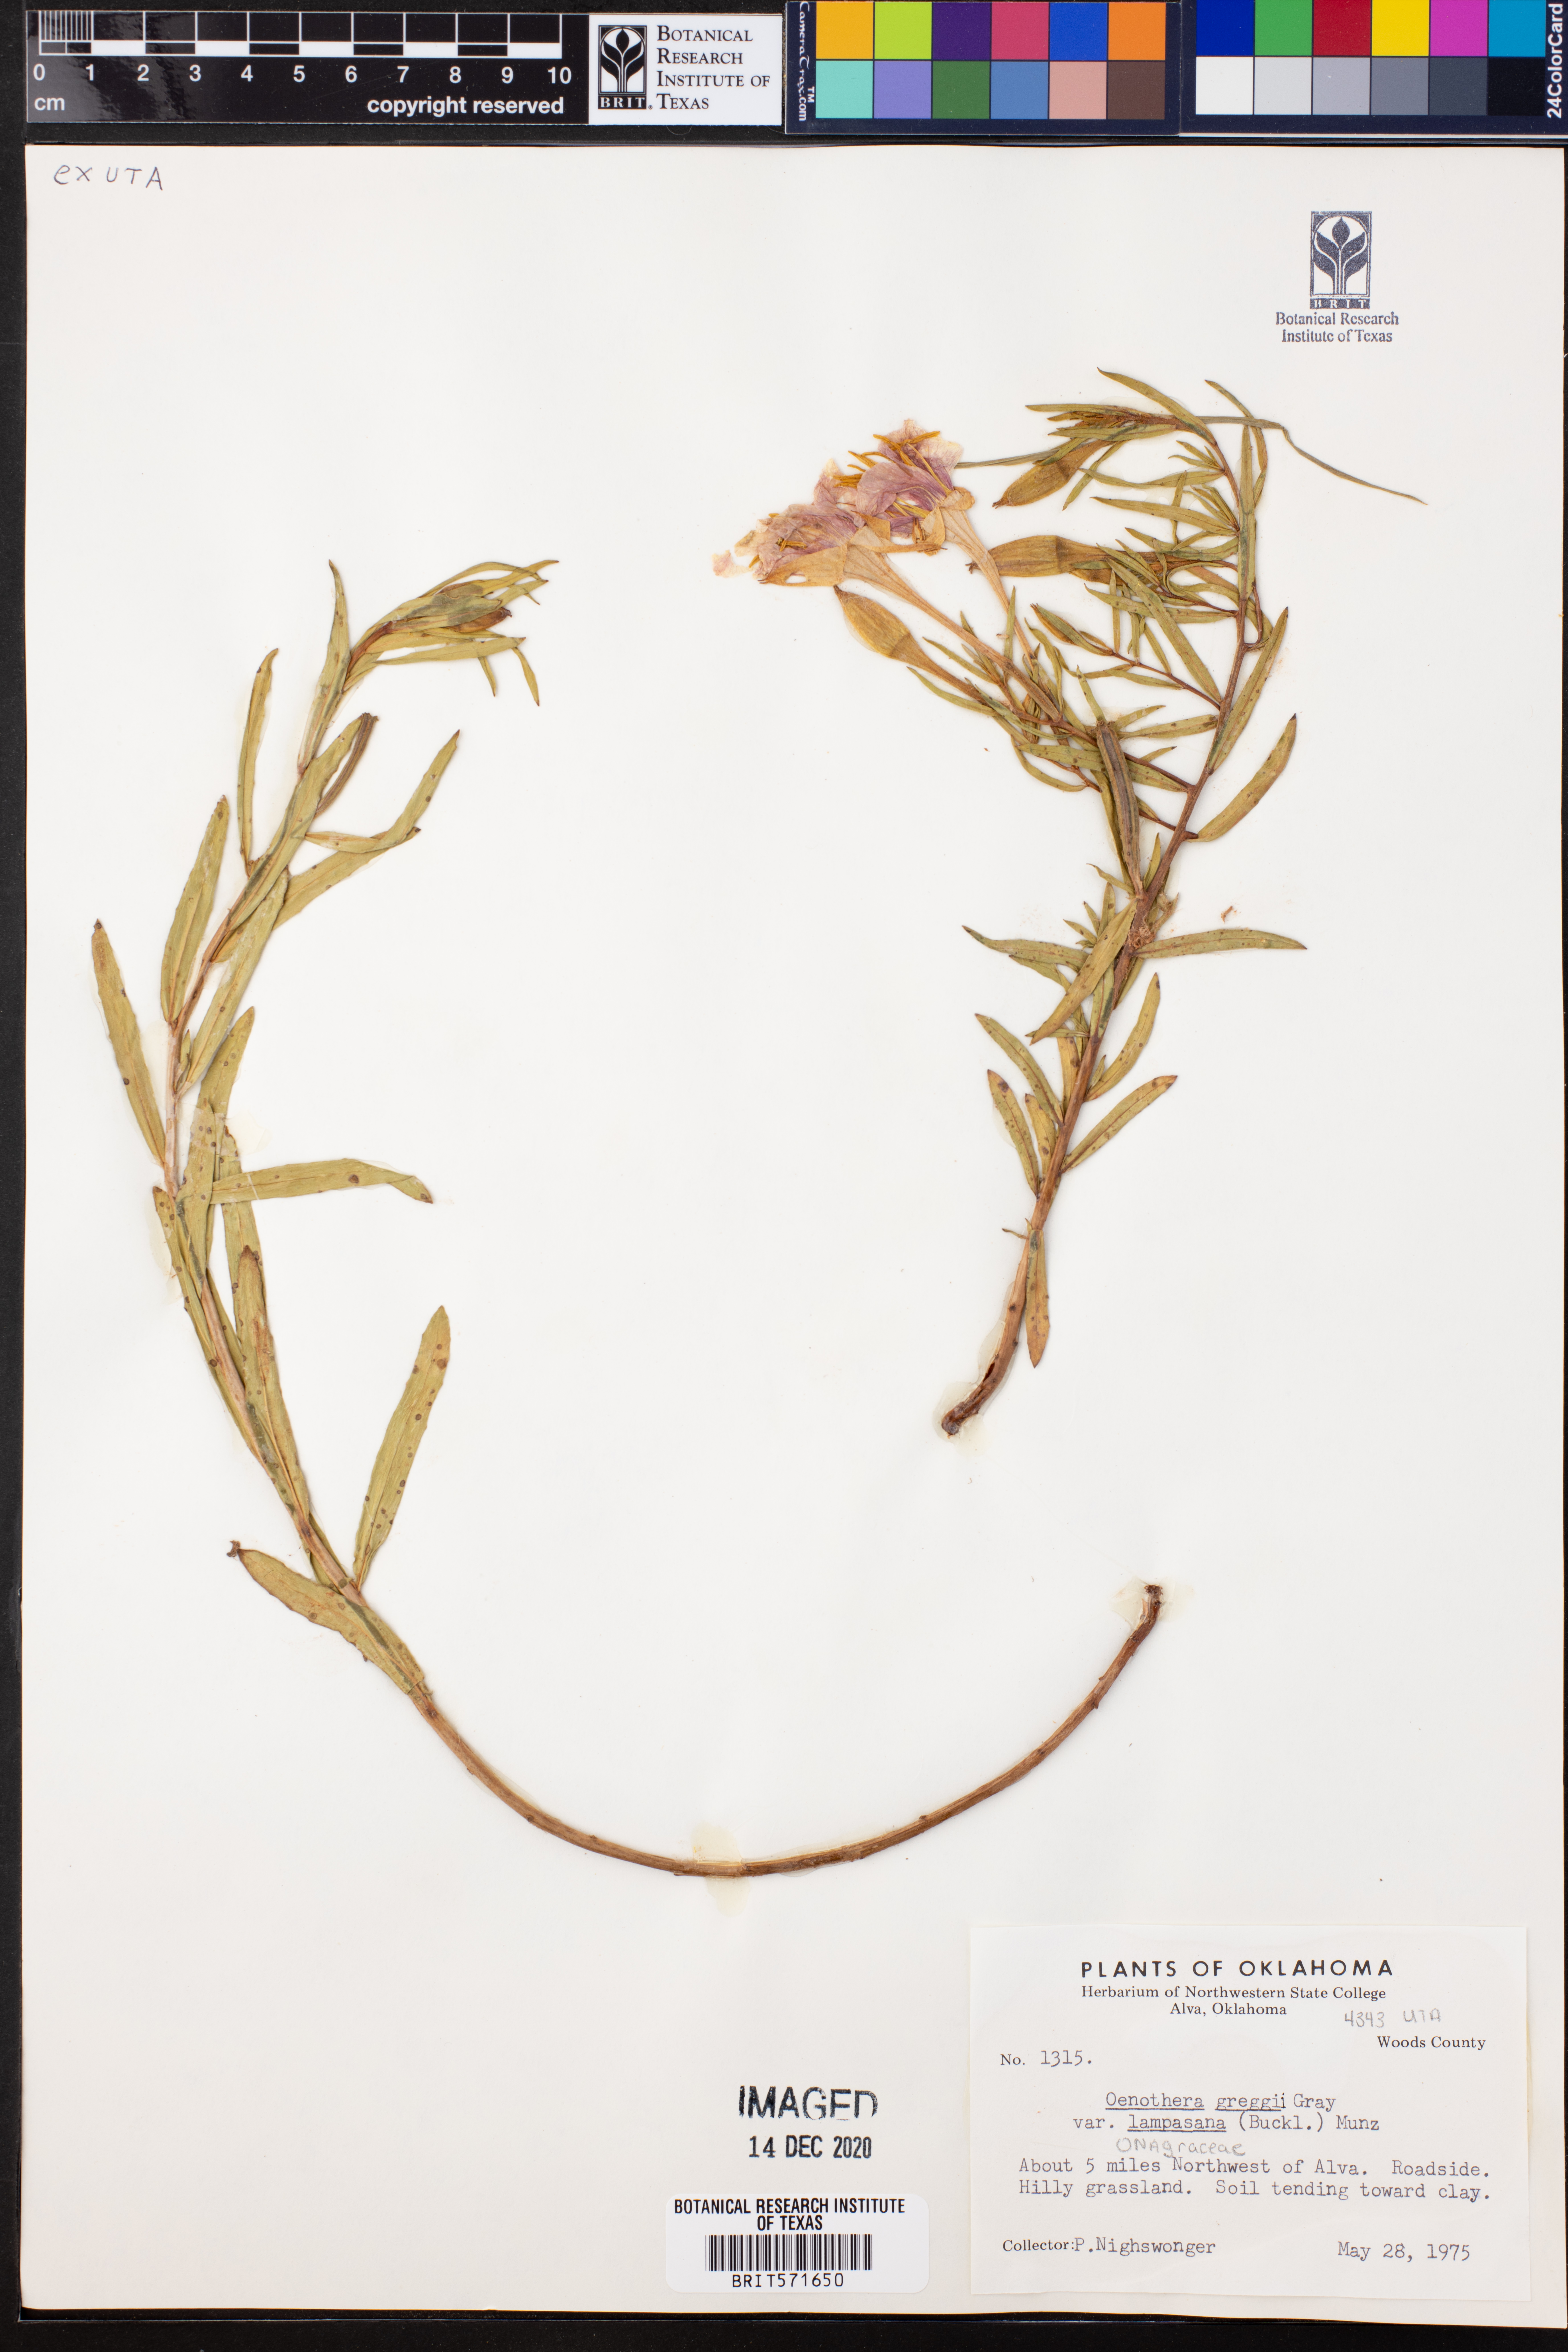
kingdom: Plantae
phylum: Tracheophyta
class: Magnoliopsida
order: Myrtales
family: Onagraceae
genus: Oenothera
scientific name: Oenothera hartwegii
